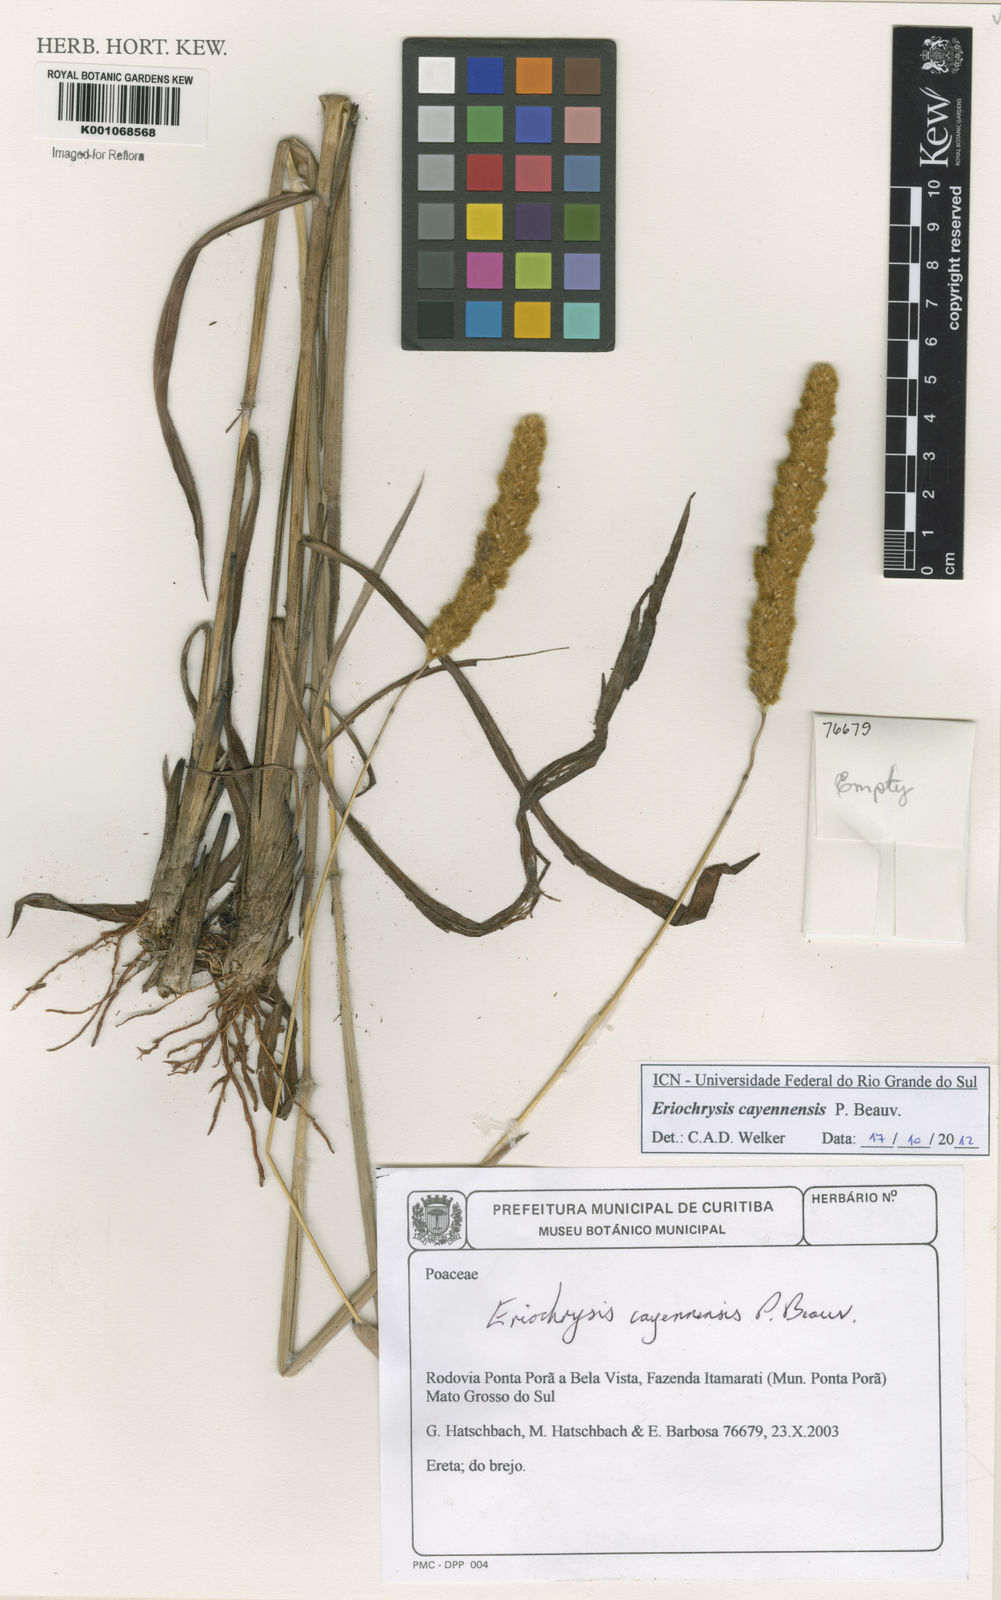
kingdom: Plantae
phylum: Tracheophyta
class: Liliopsida
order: Poales
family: Poaceae
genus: Eriochrysis
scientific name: Eriochrysis cayennensis
